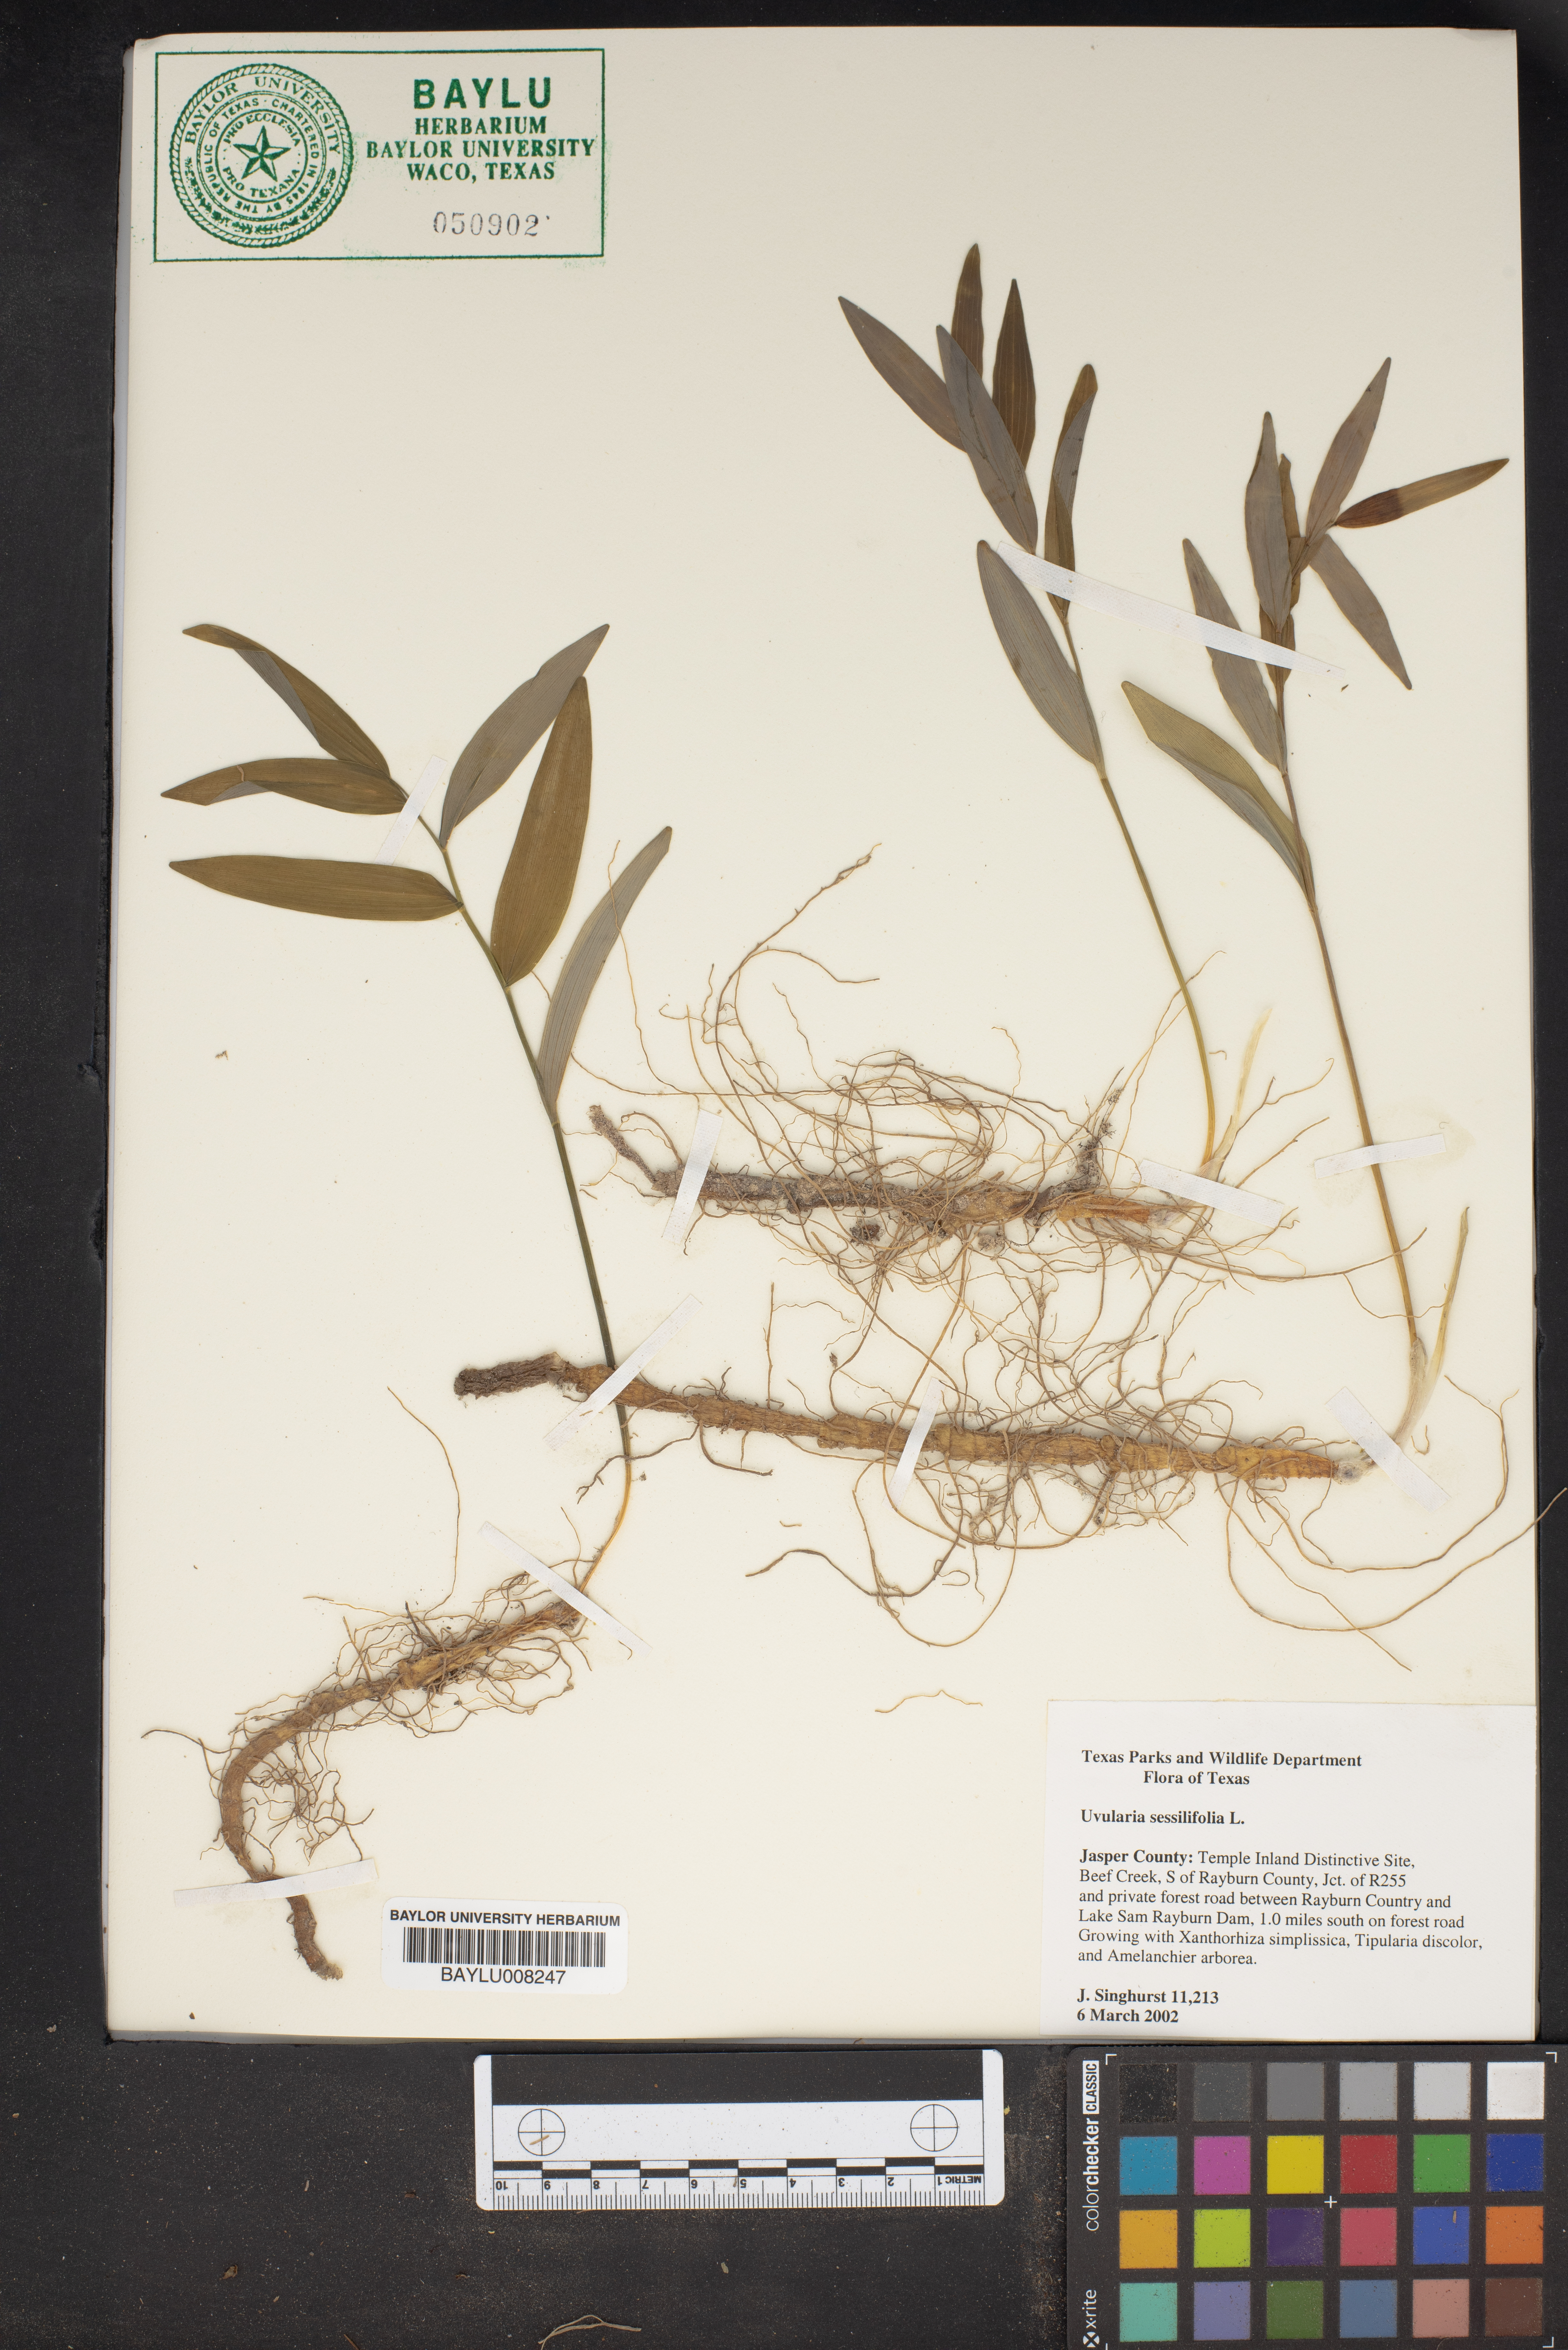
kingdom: Plantae
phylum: Tracheophyta
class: Liliopsida
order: Liliales
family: Colchicaceae
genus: Uvularia
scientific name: Uvularia sessilifolia
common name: Straw-lily
